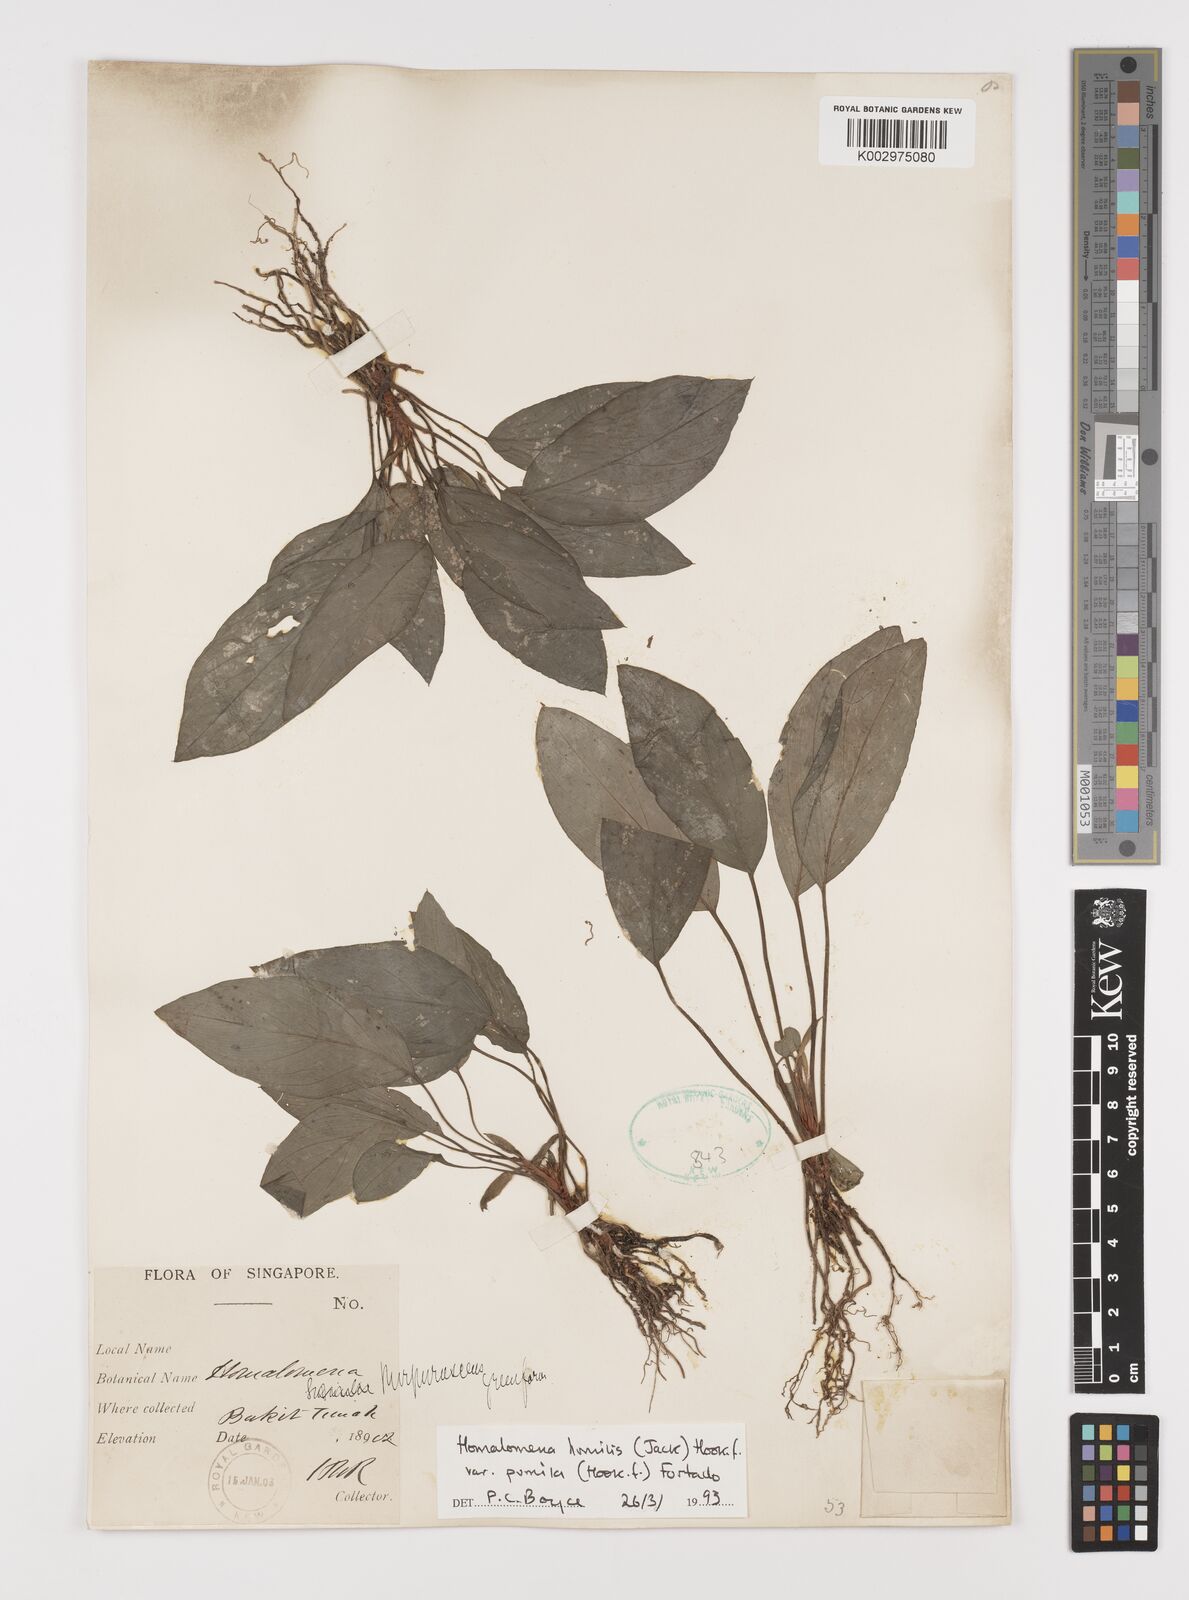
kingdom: Plantae
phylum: Tracheophyta
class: Liliopsida
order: Alismatales
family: Araceae
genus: Homalomena
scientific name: Homalomena humilis
